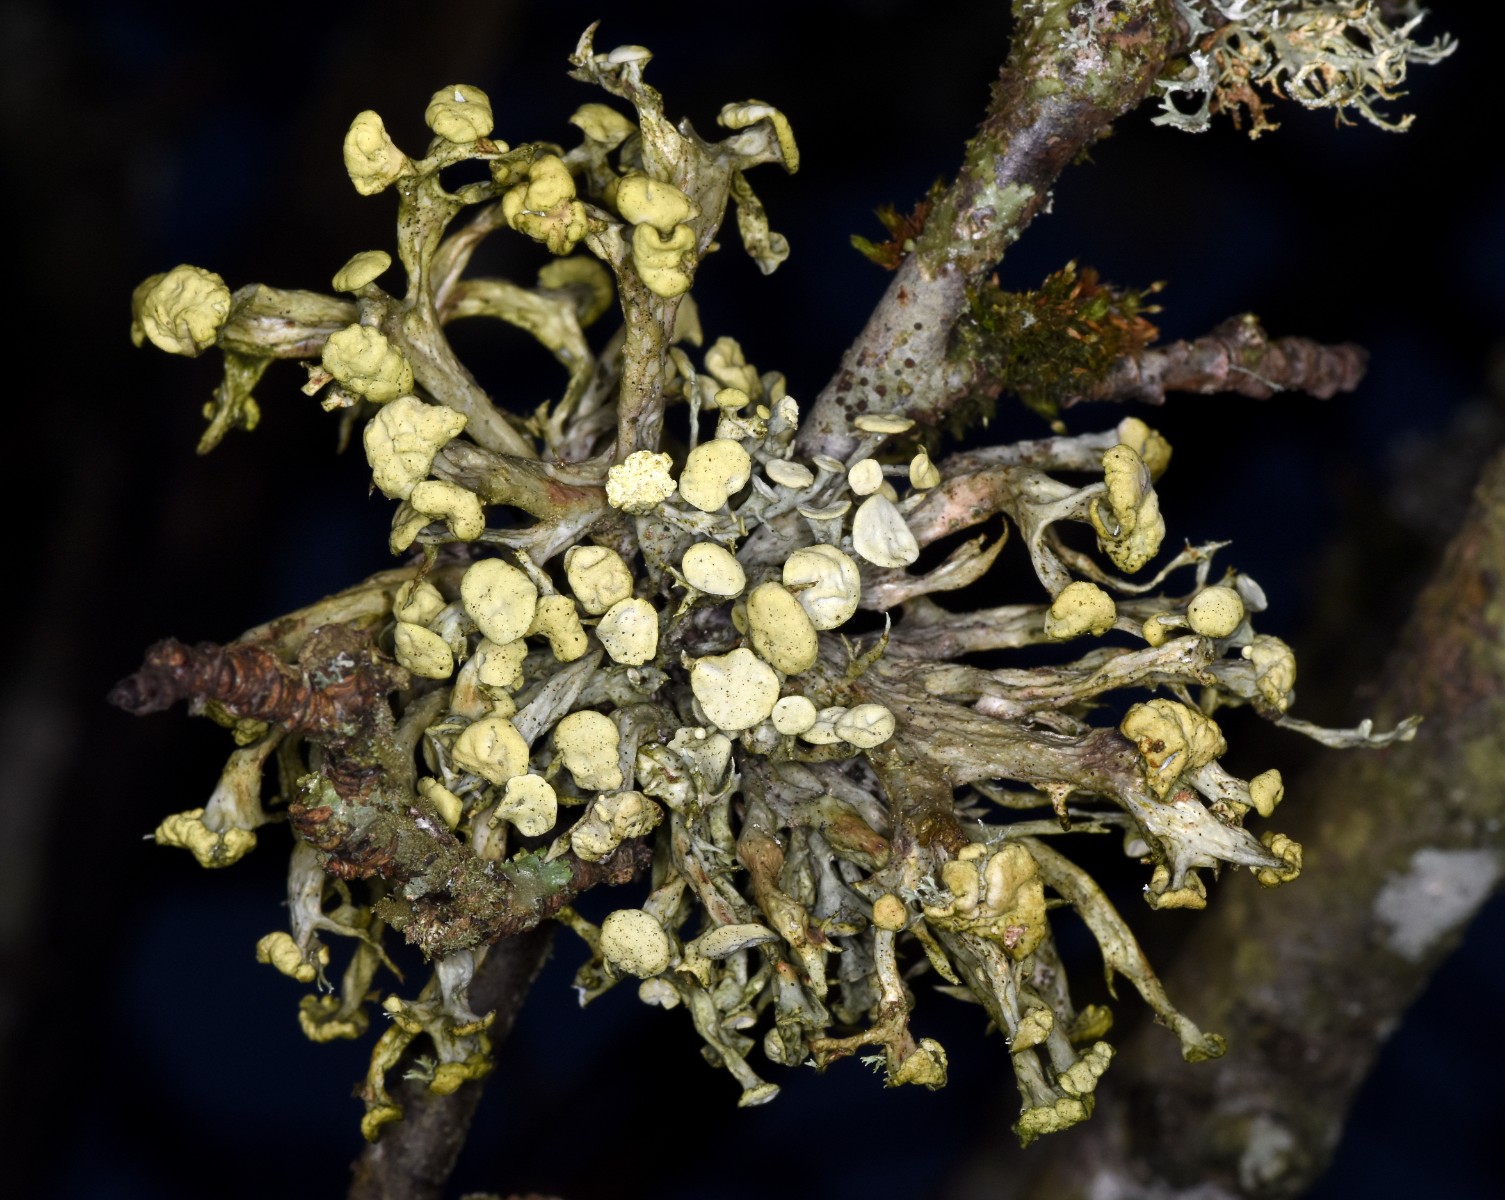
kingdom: Fungi
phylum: Ascomycota
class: Lecanoromycetes
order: Lecanorales
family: Ramalinaceae
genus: Ramalina
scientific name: Ramalina fastigiata
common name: tue-grenlav
